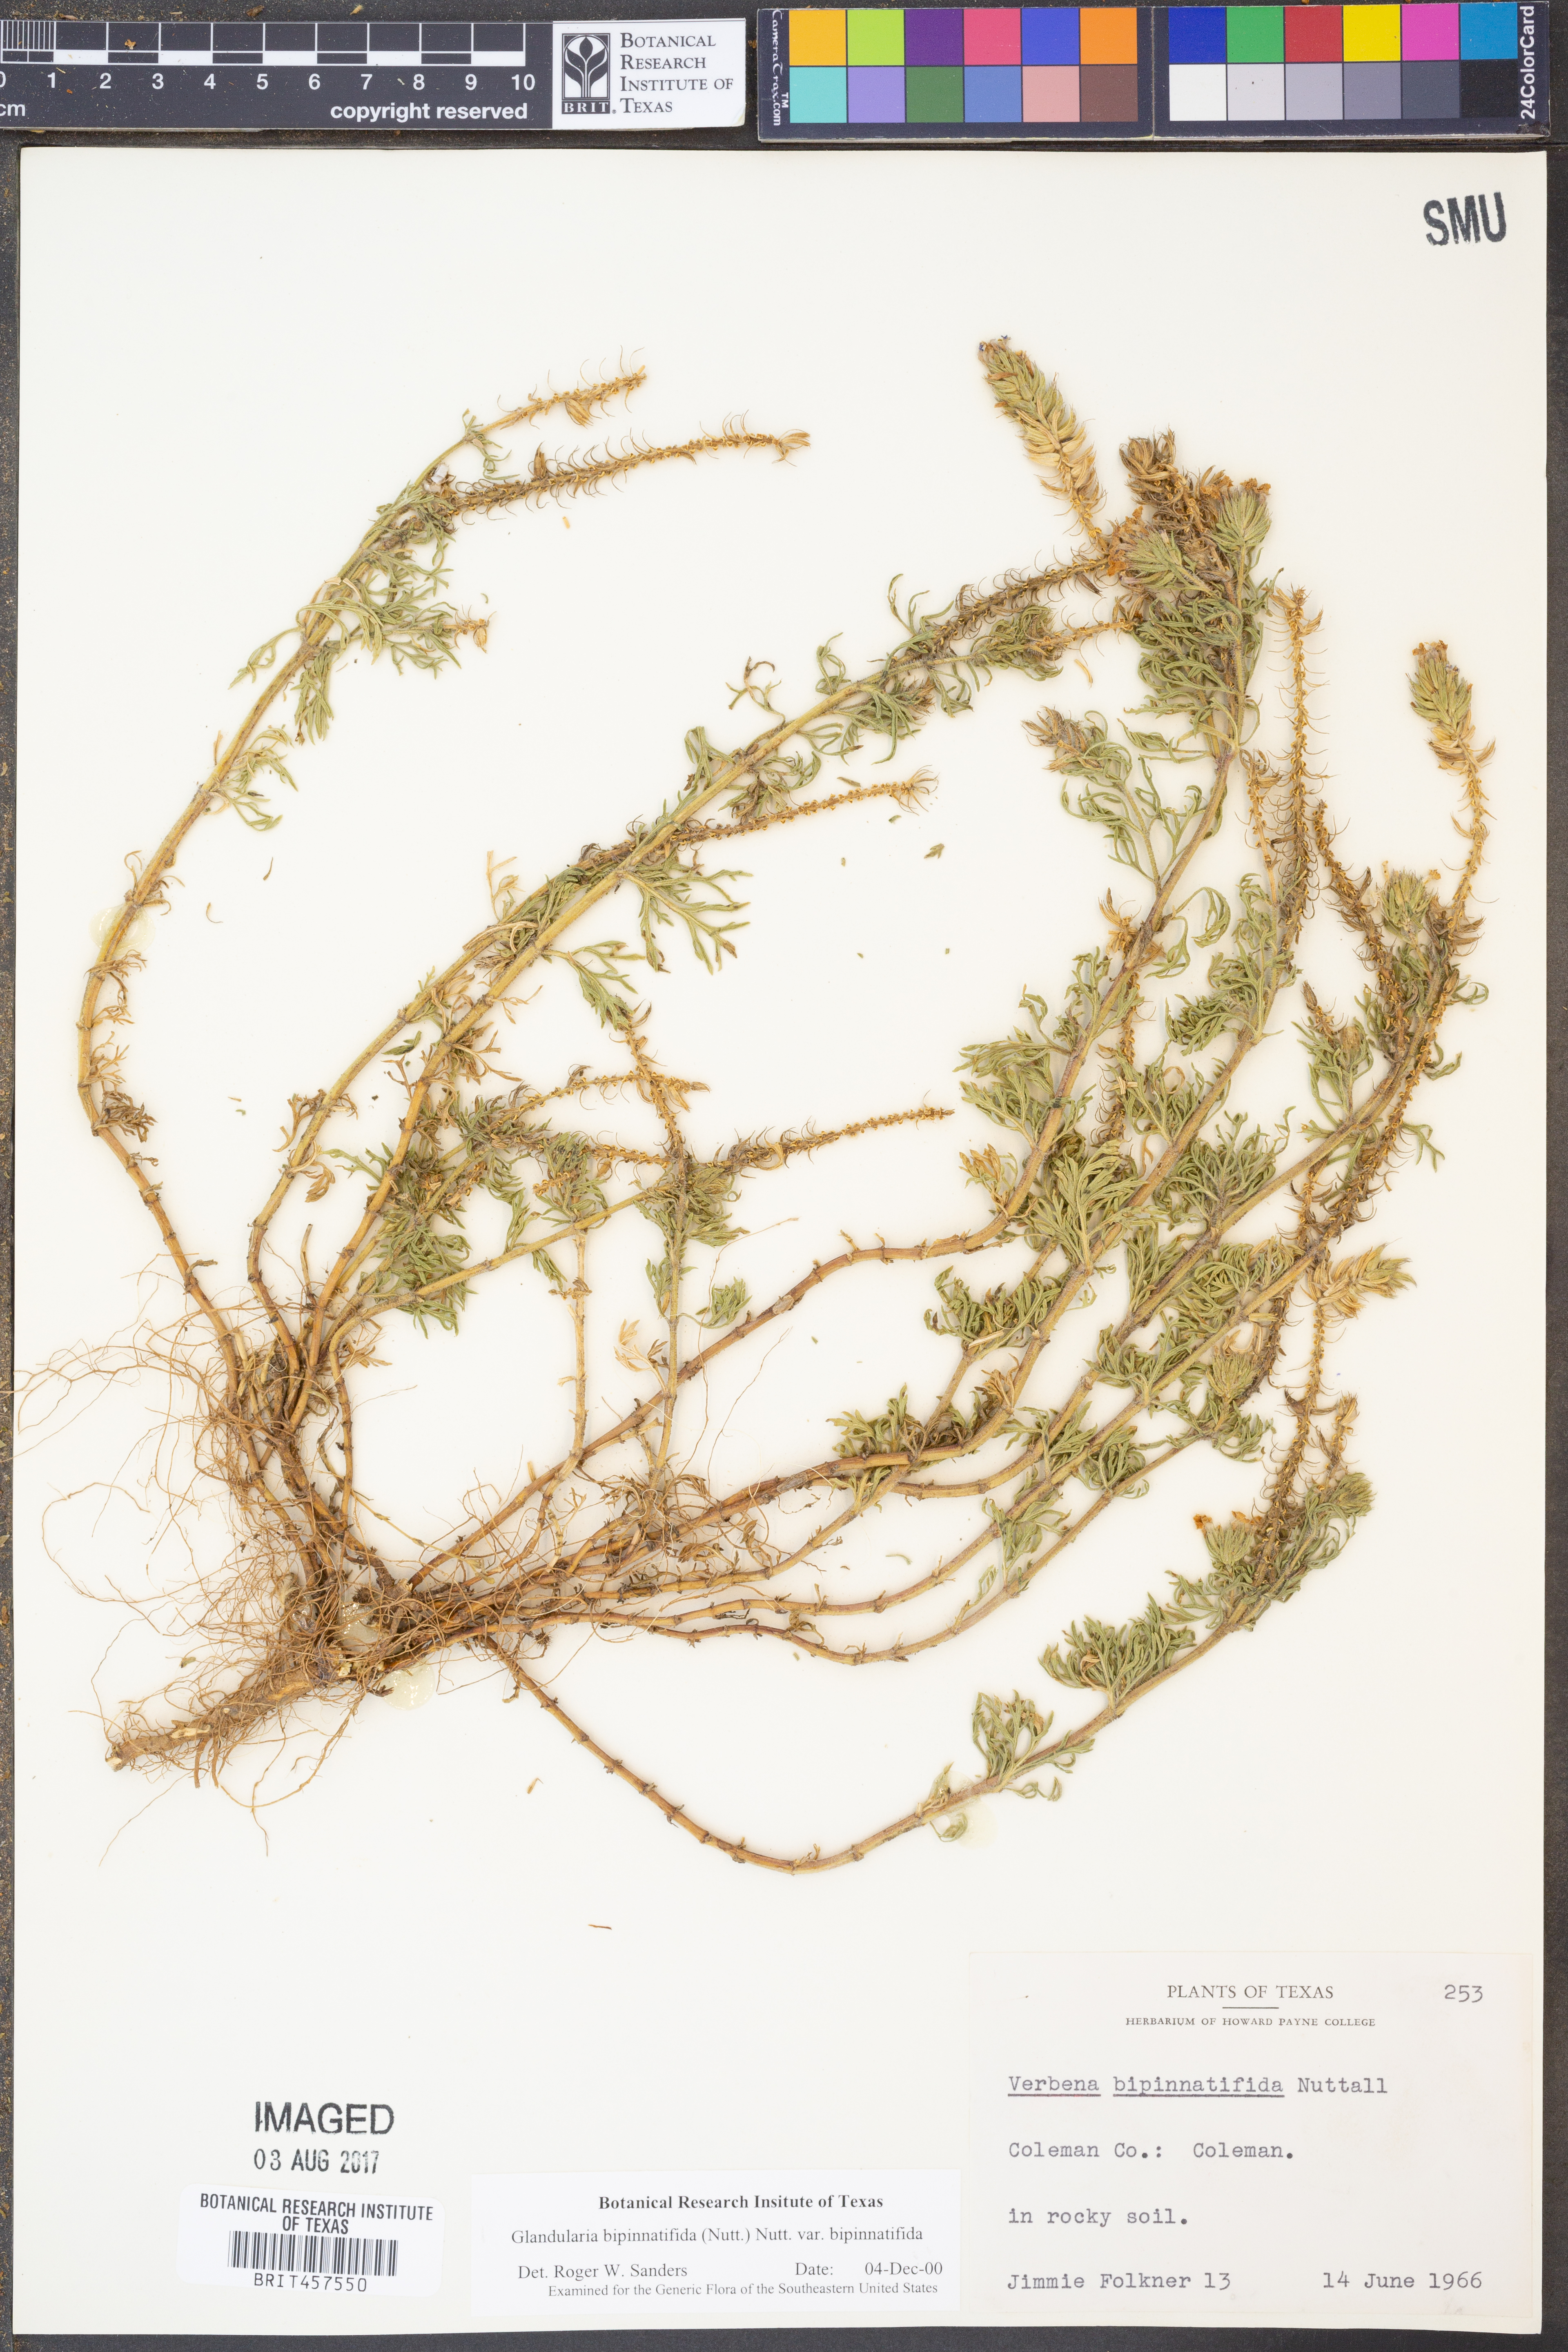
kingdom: Plantae
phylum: Tracheophyta
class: Magnoliopsida
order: Lamiales
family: Verbenaceae
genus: Verbena
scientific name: Verbena bipinnatifida
